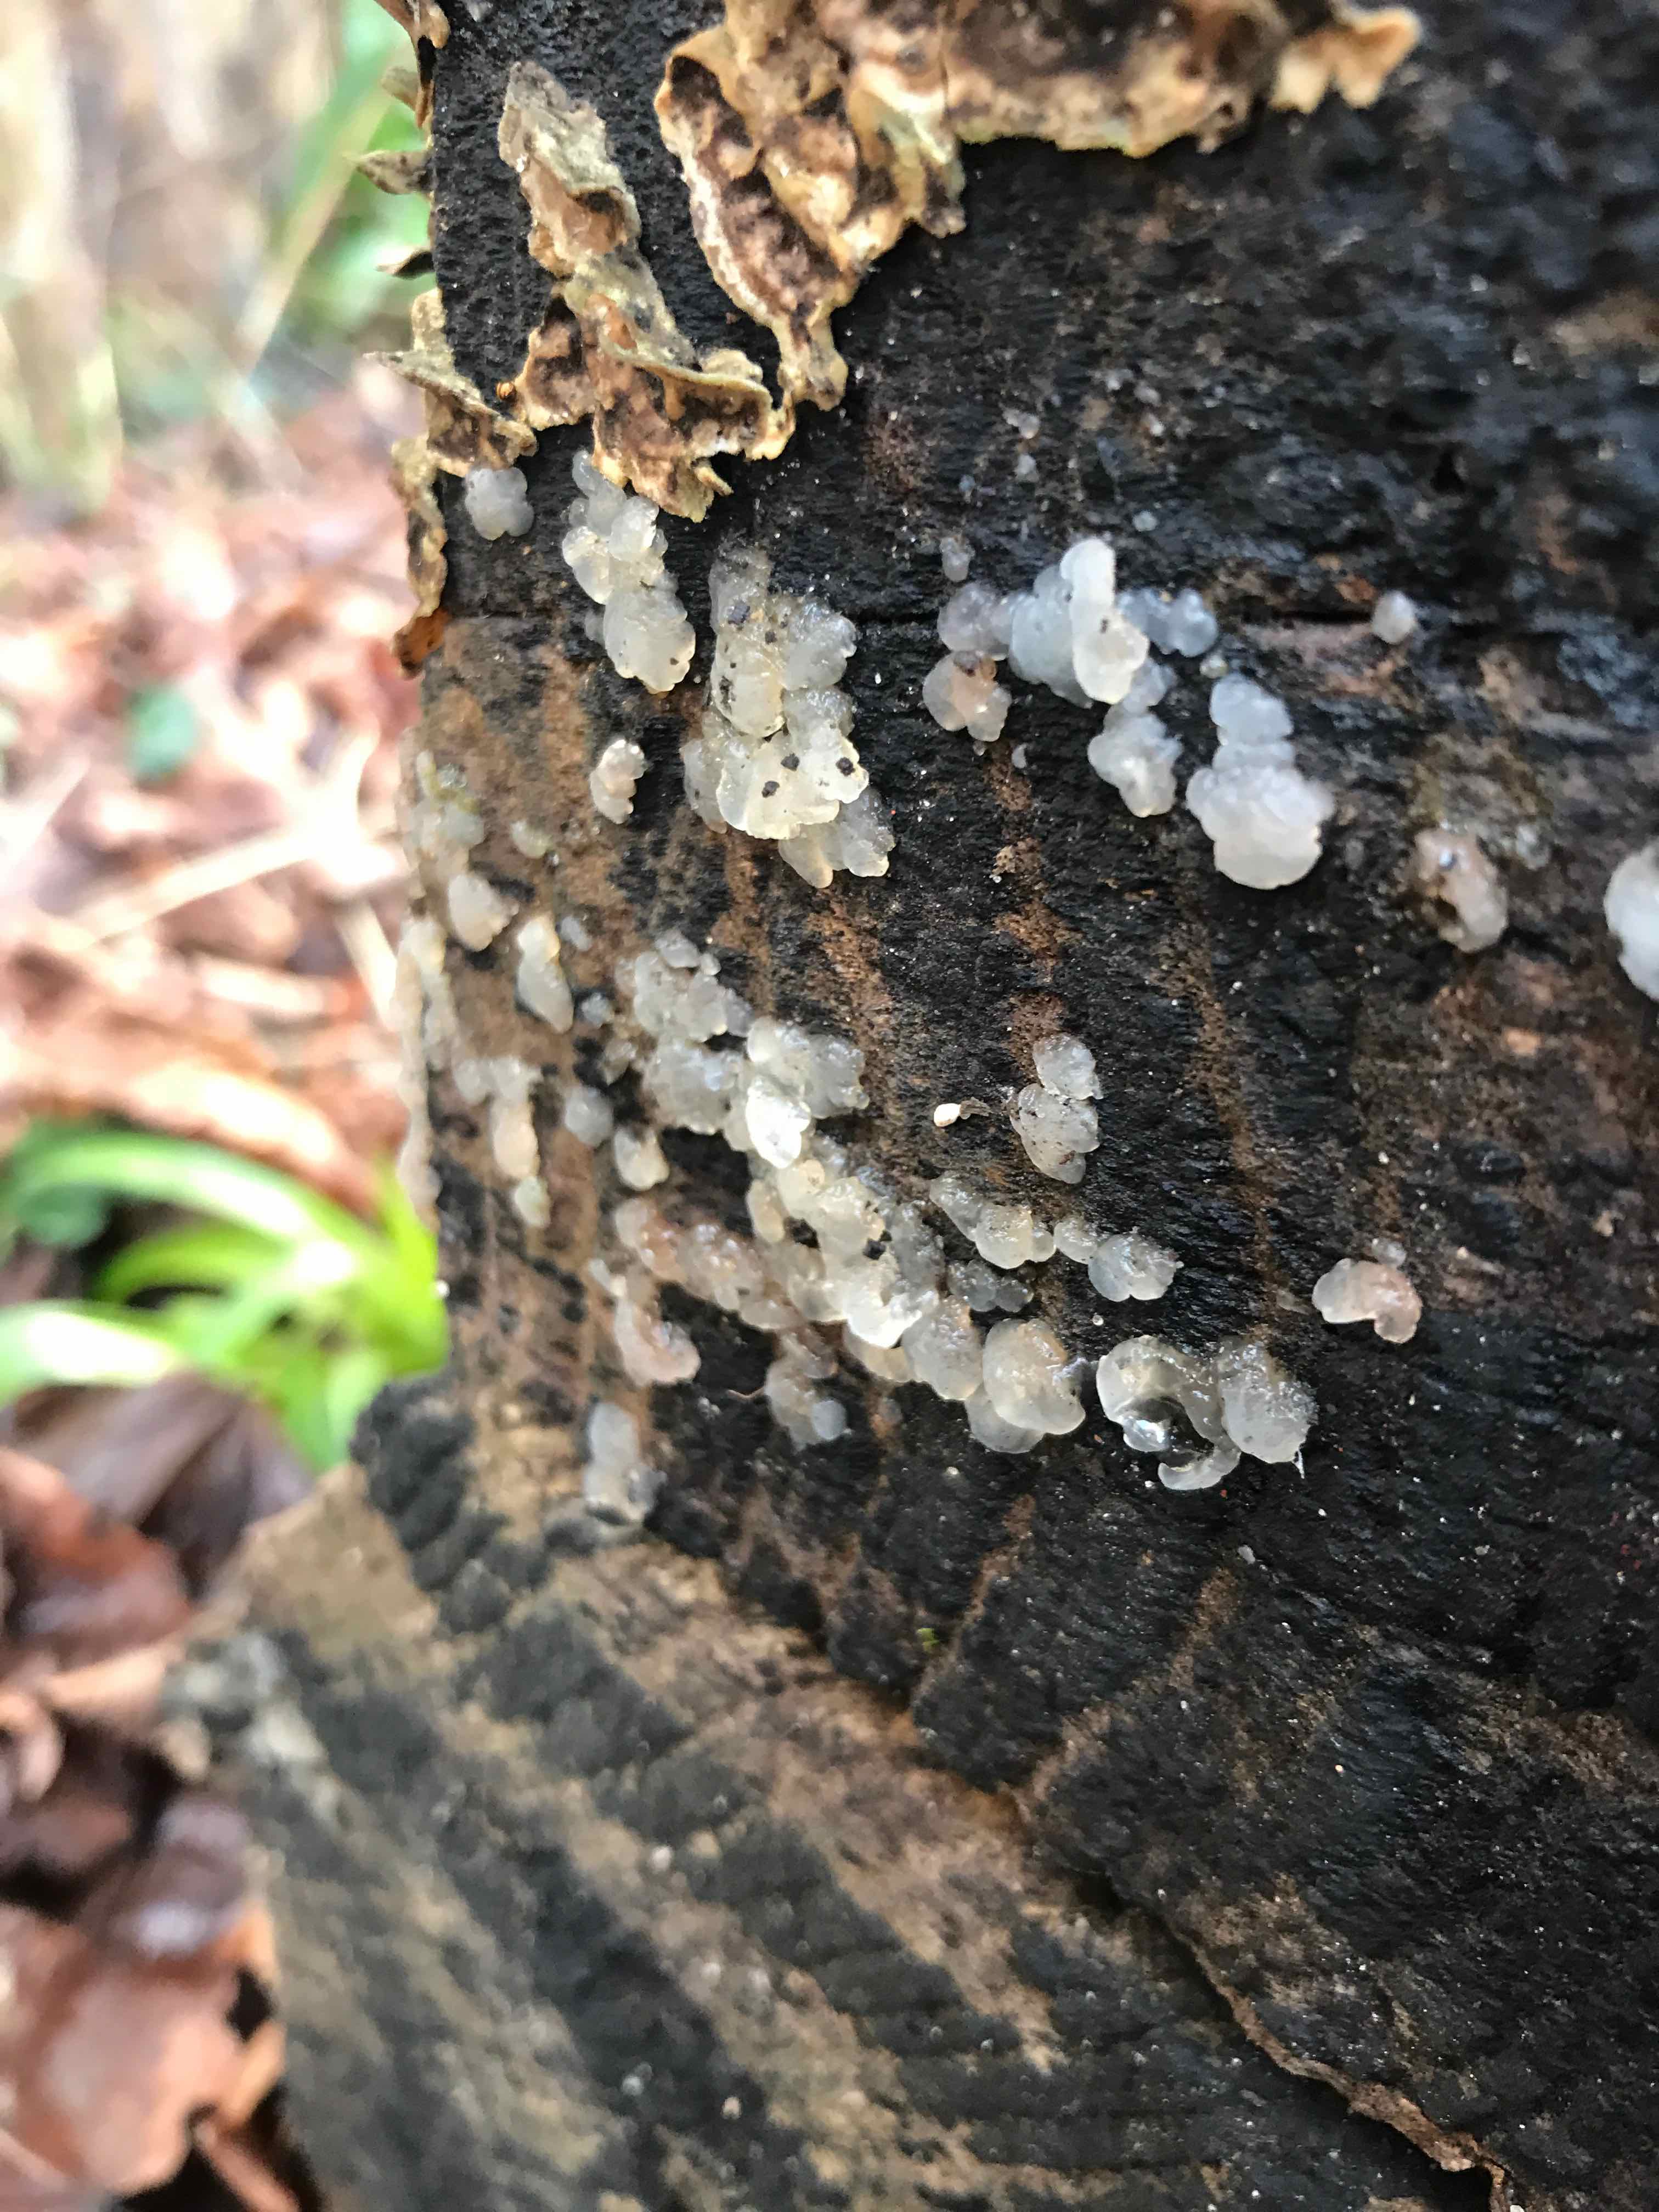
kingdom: Fungi
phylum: Basidiomycota
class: Agaricomycetes
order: Auriculariales
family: Hyaloriaceae
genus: Myxarium
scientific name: Myxarium nucleatum
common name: klar bævretop
